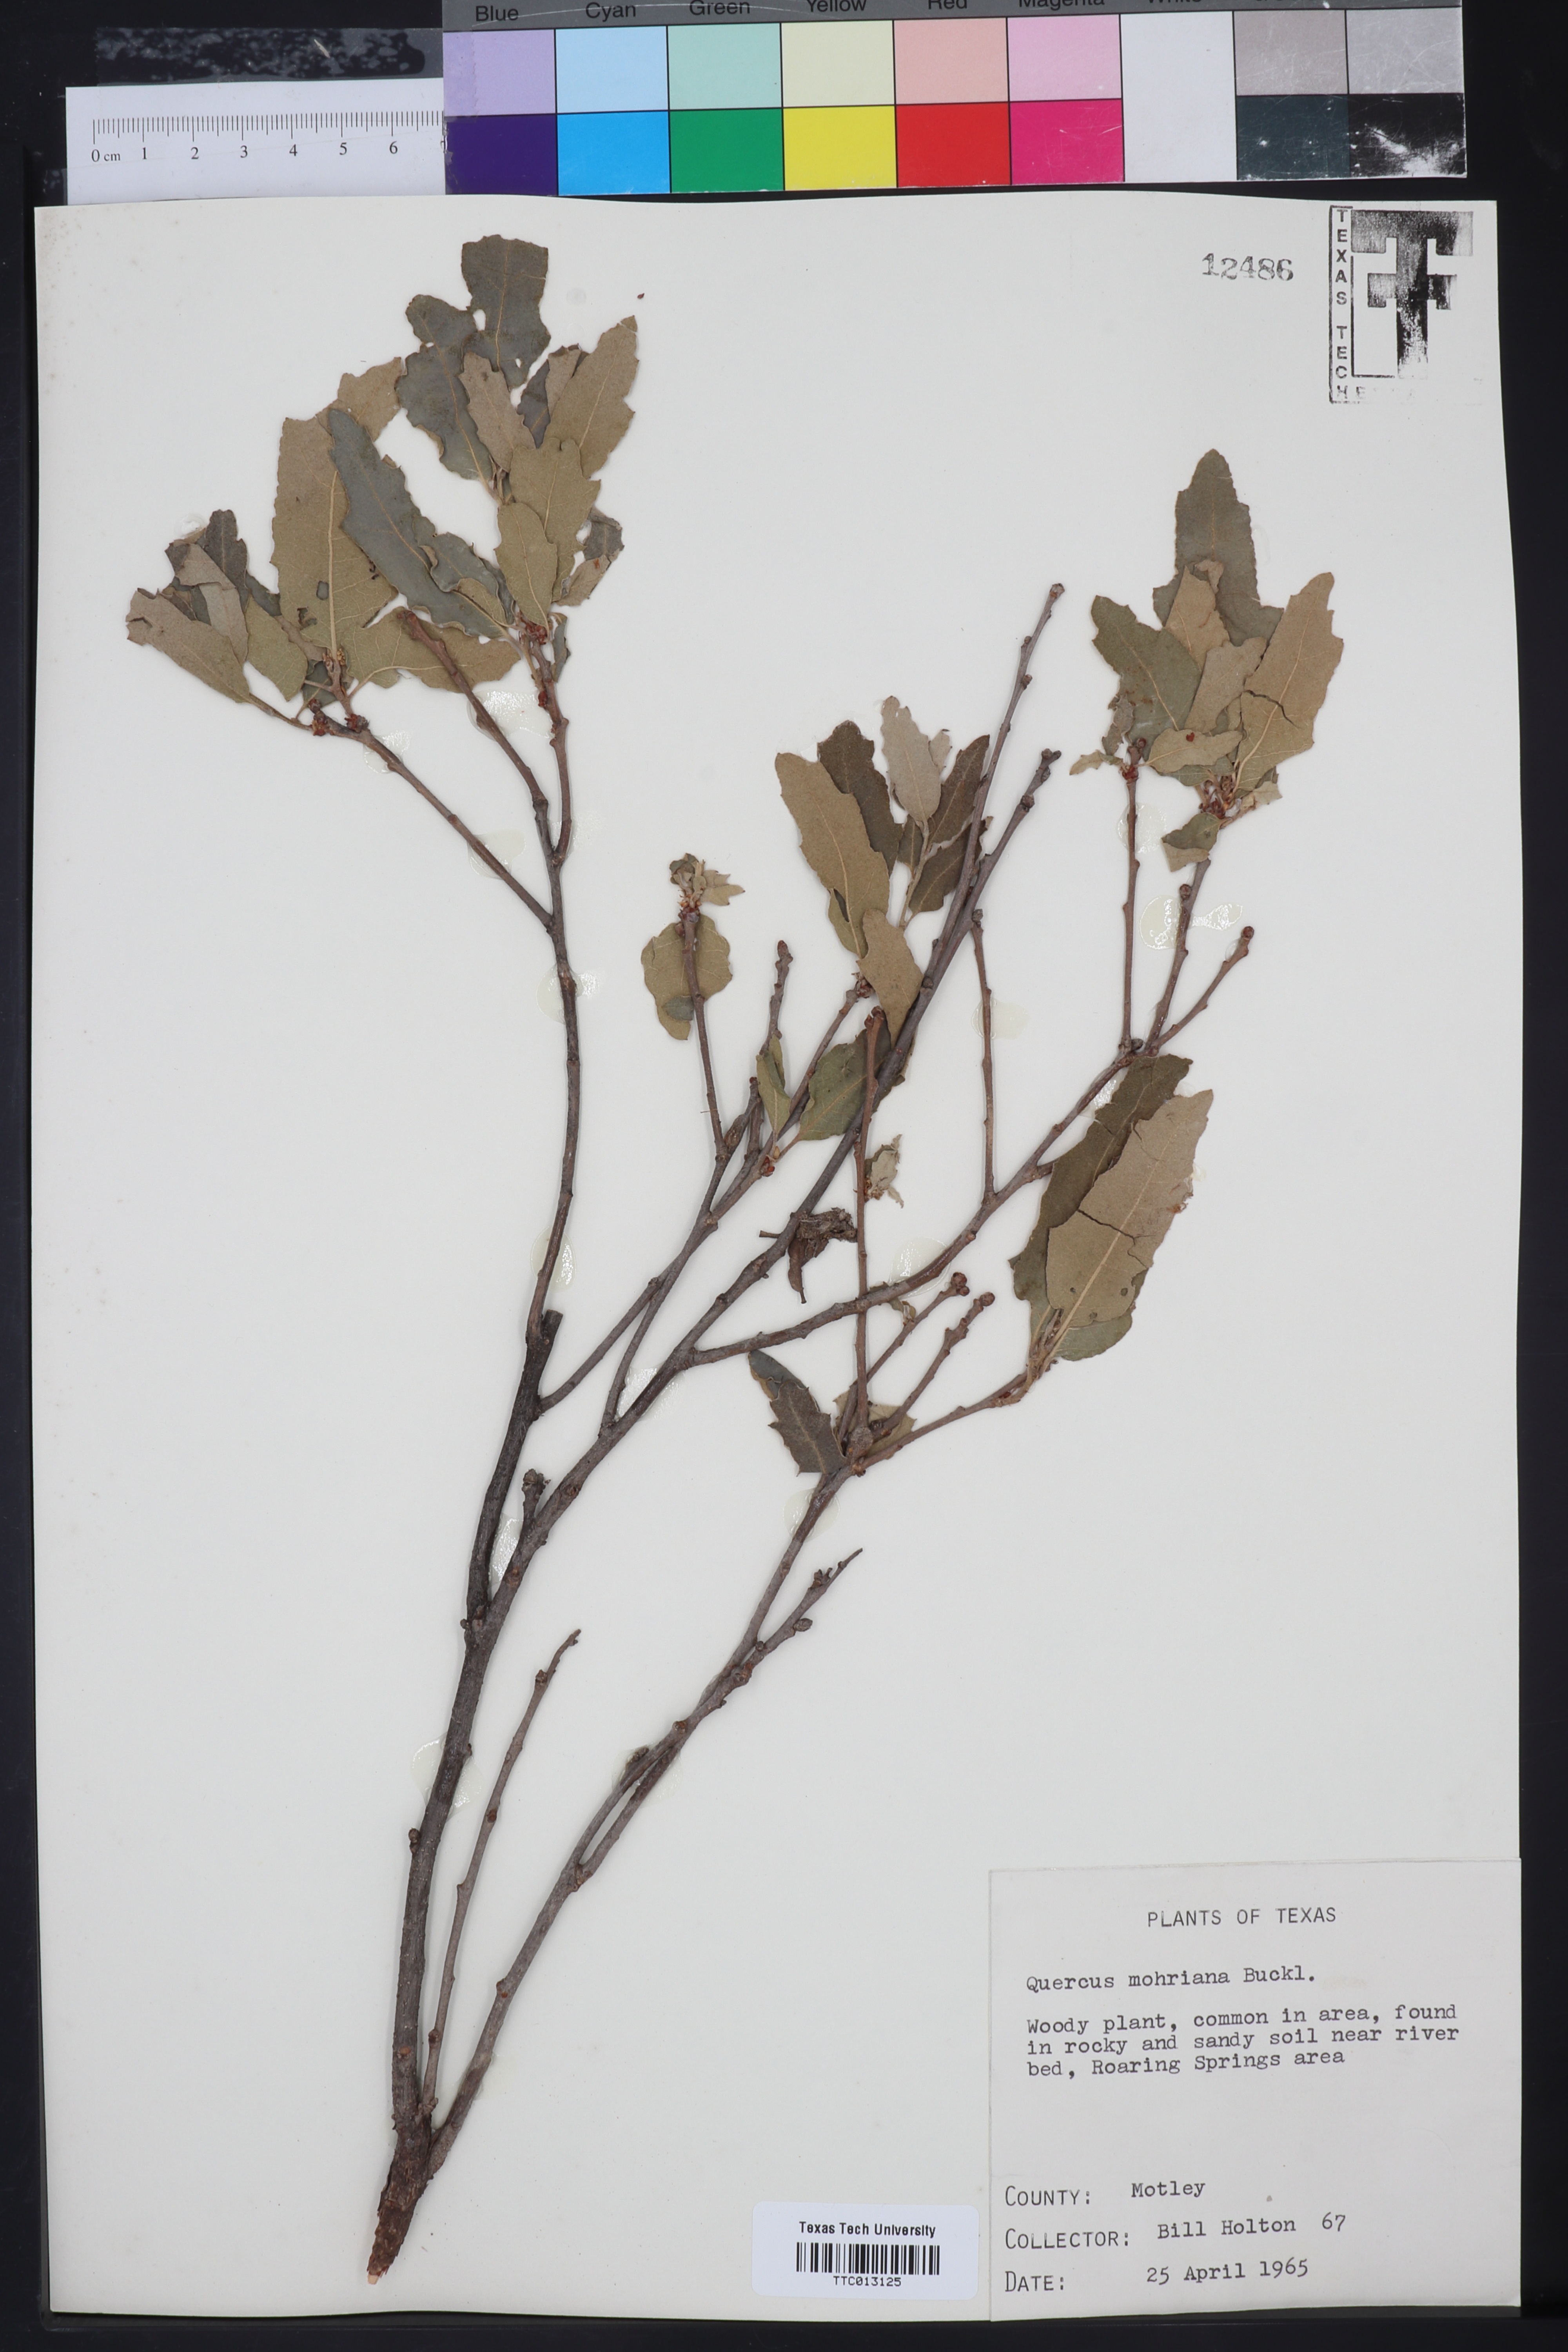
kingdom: Plantae
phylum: Tracheophyta
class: Magnoliopsida
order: Fagales
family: Fagaceae
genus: Quercus
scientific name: Quercus mohriana
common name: Mohr oak
